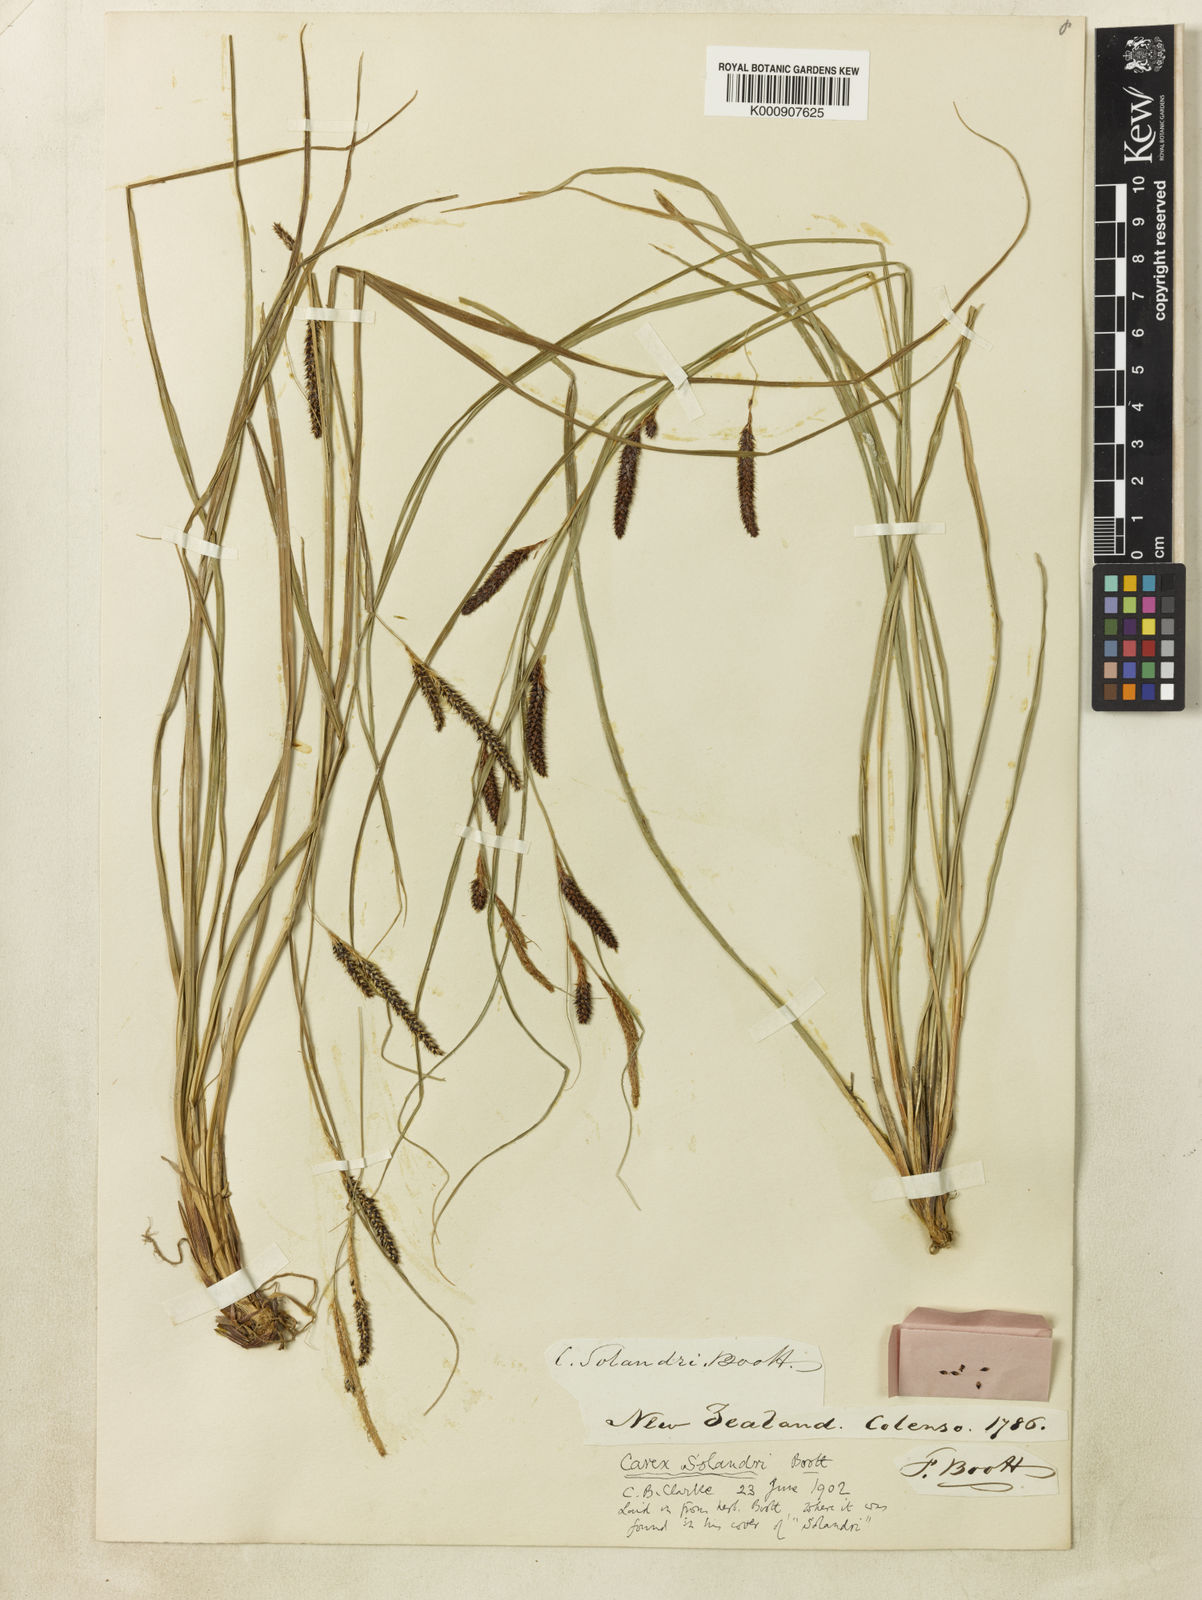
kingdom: Plantae
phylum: Tracheophyta
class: Liliopsida
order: Poales
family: Cyperaceae
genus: Carex
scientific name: Carex dissita
